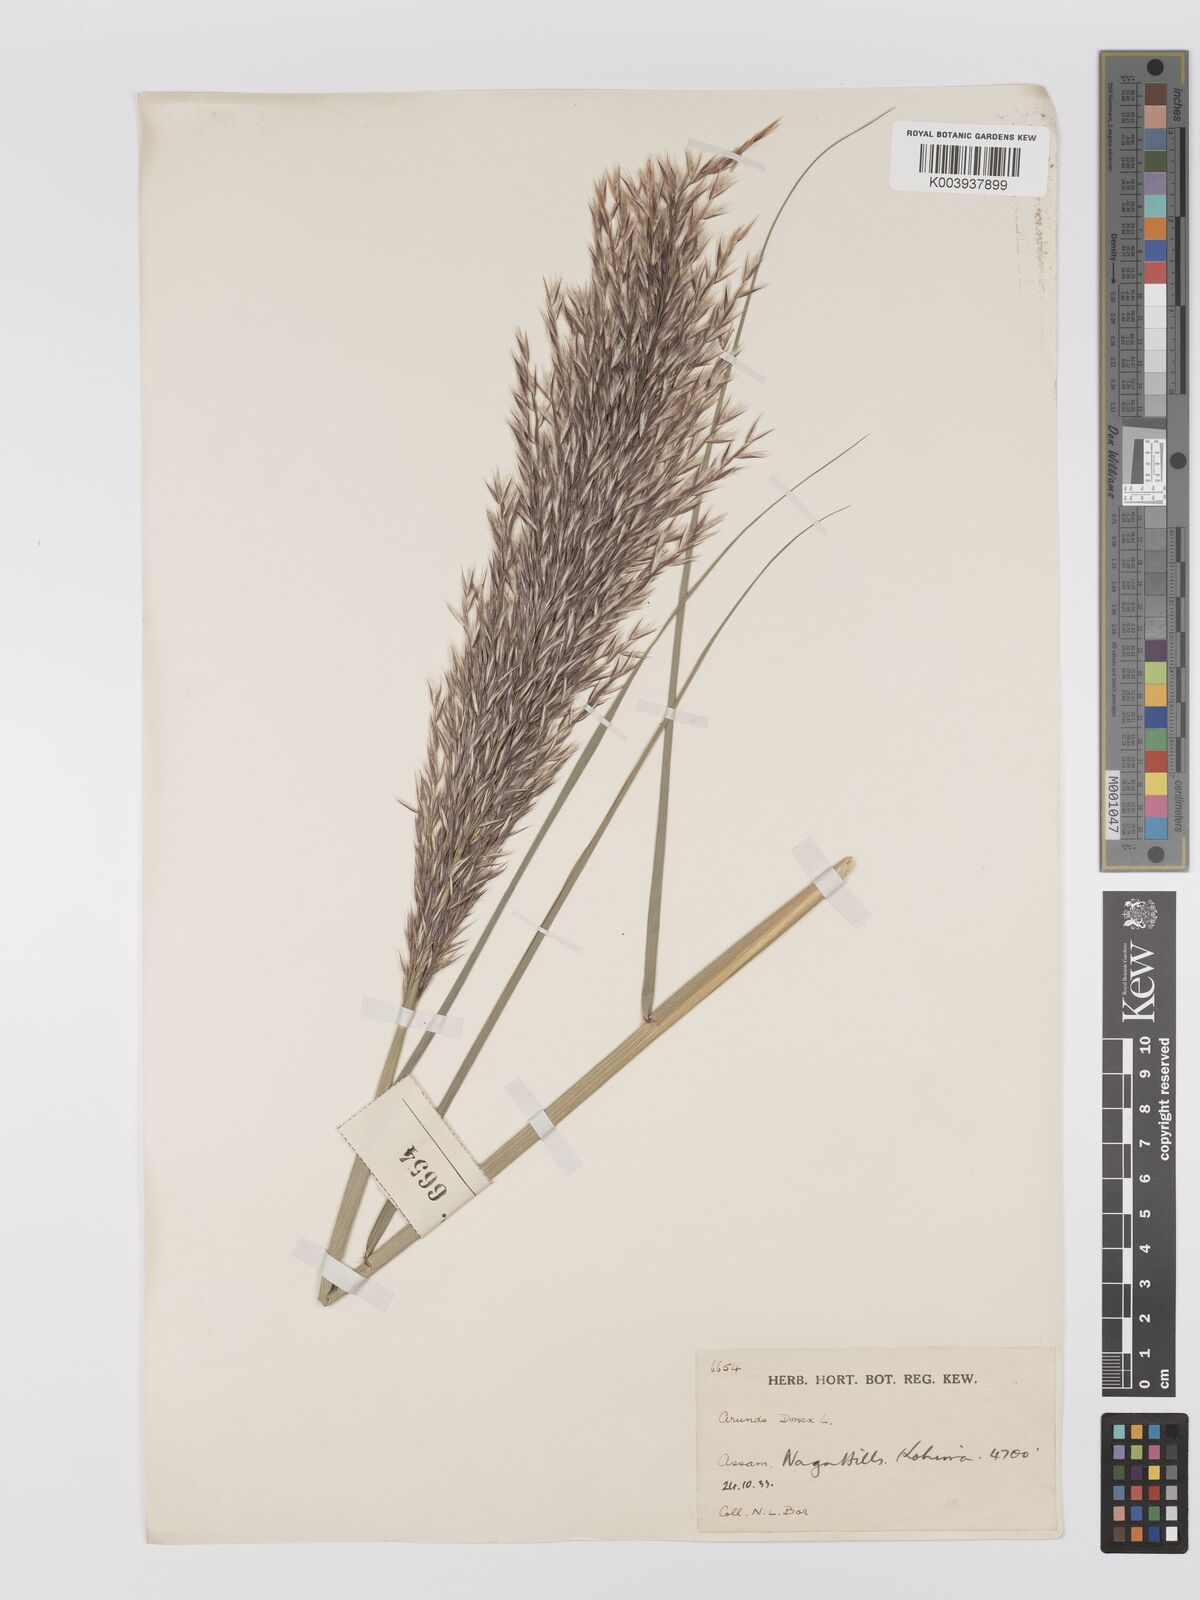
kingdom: Plantae
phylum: Tracheophyta
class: Liliopsida
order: Poales
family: Poaceae
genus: Arundo
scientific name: Arundo
